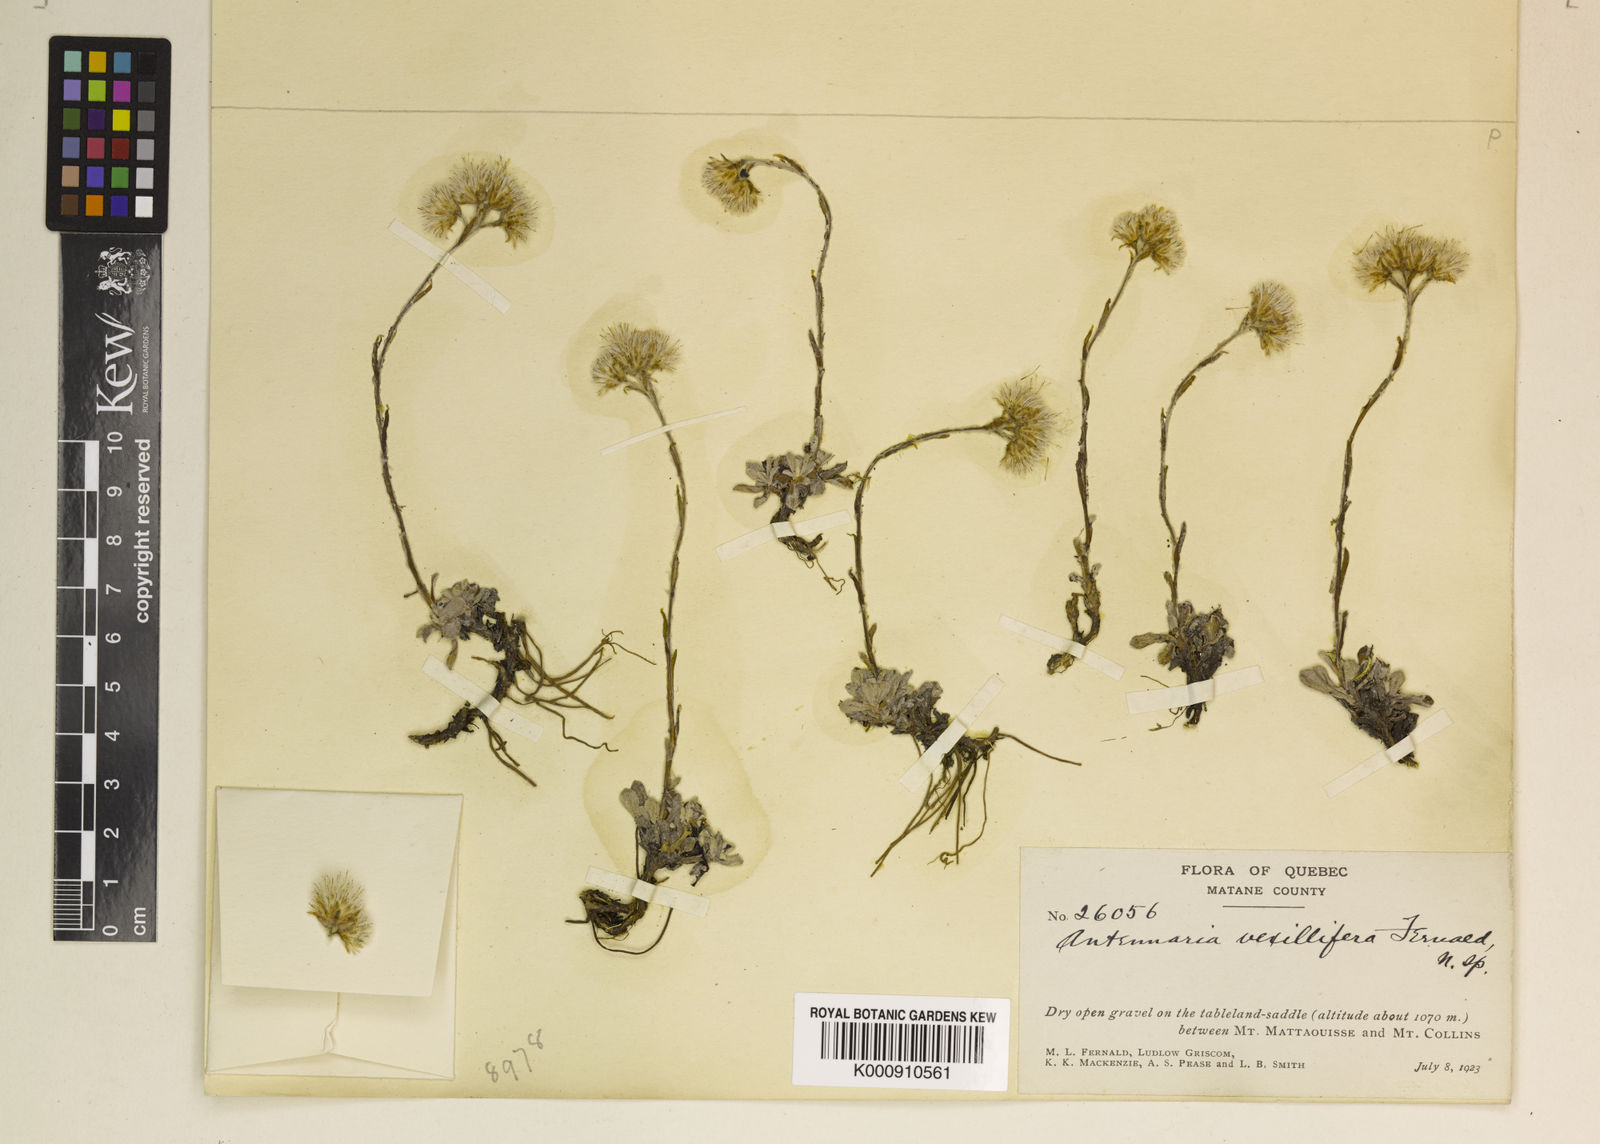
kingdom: Plantae
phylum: Tracheophyta
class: Magnoliopsida
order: Asterales
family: Asteraceae
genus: Antennaria
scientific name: Antennaria alpina
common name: Alpine pussytoes
